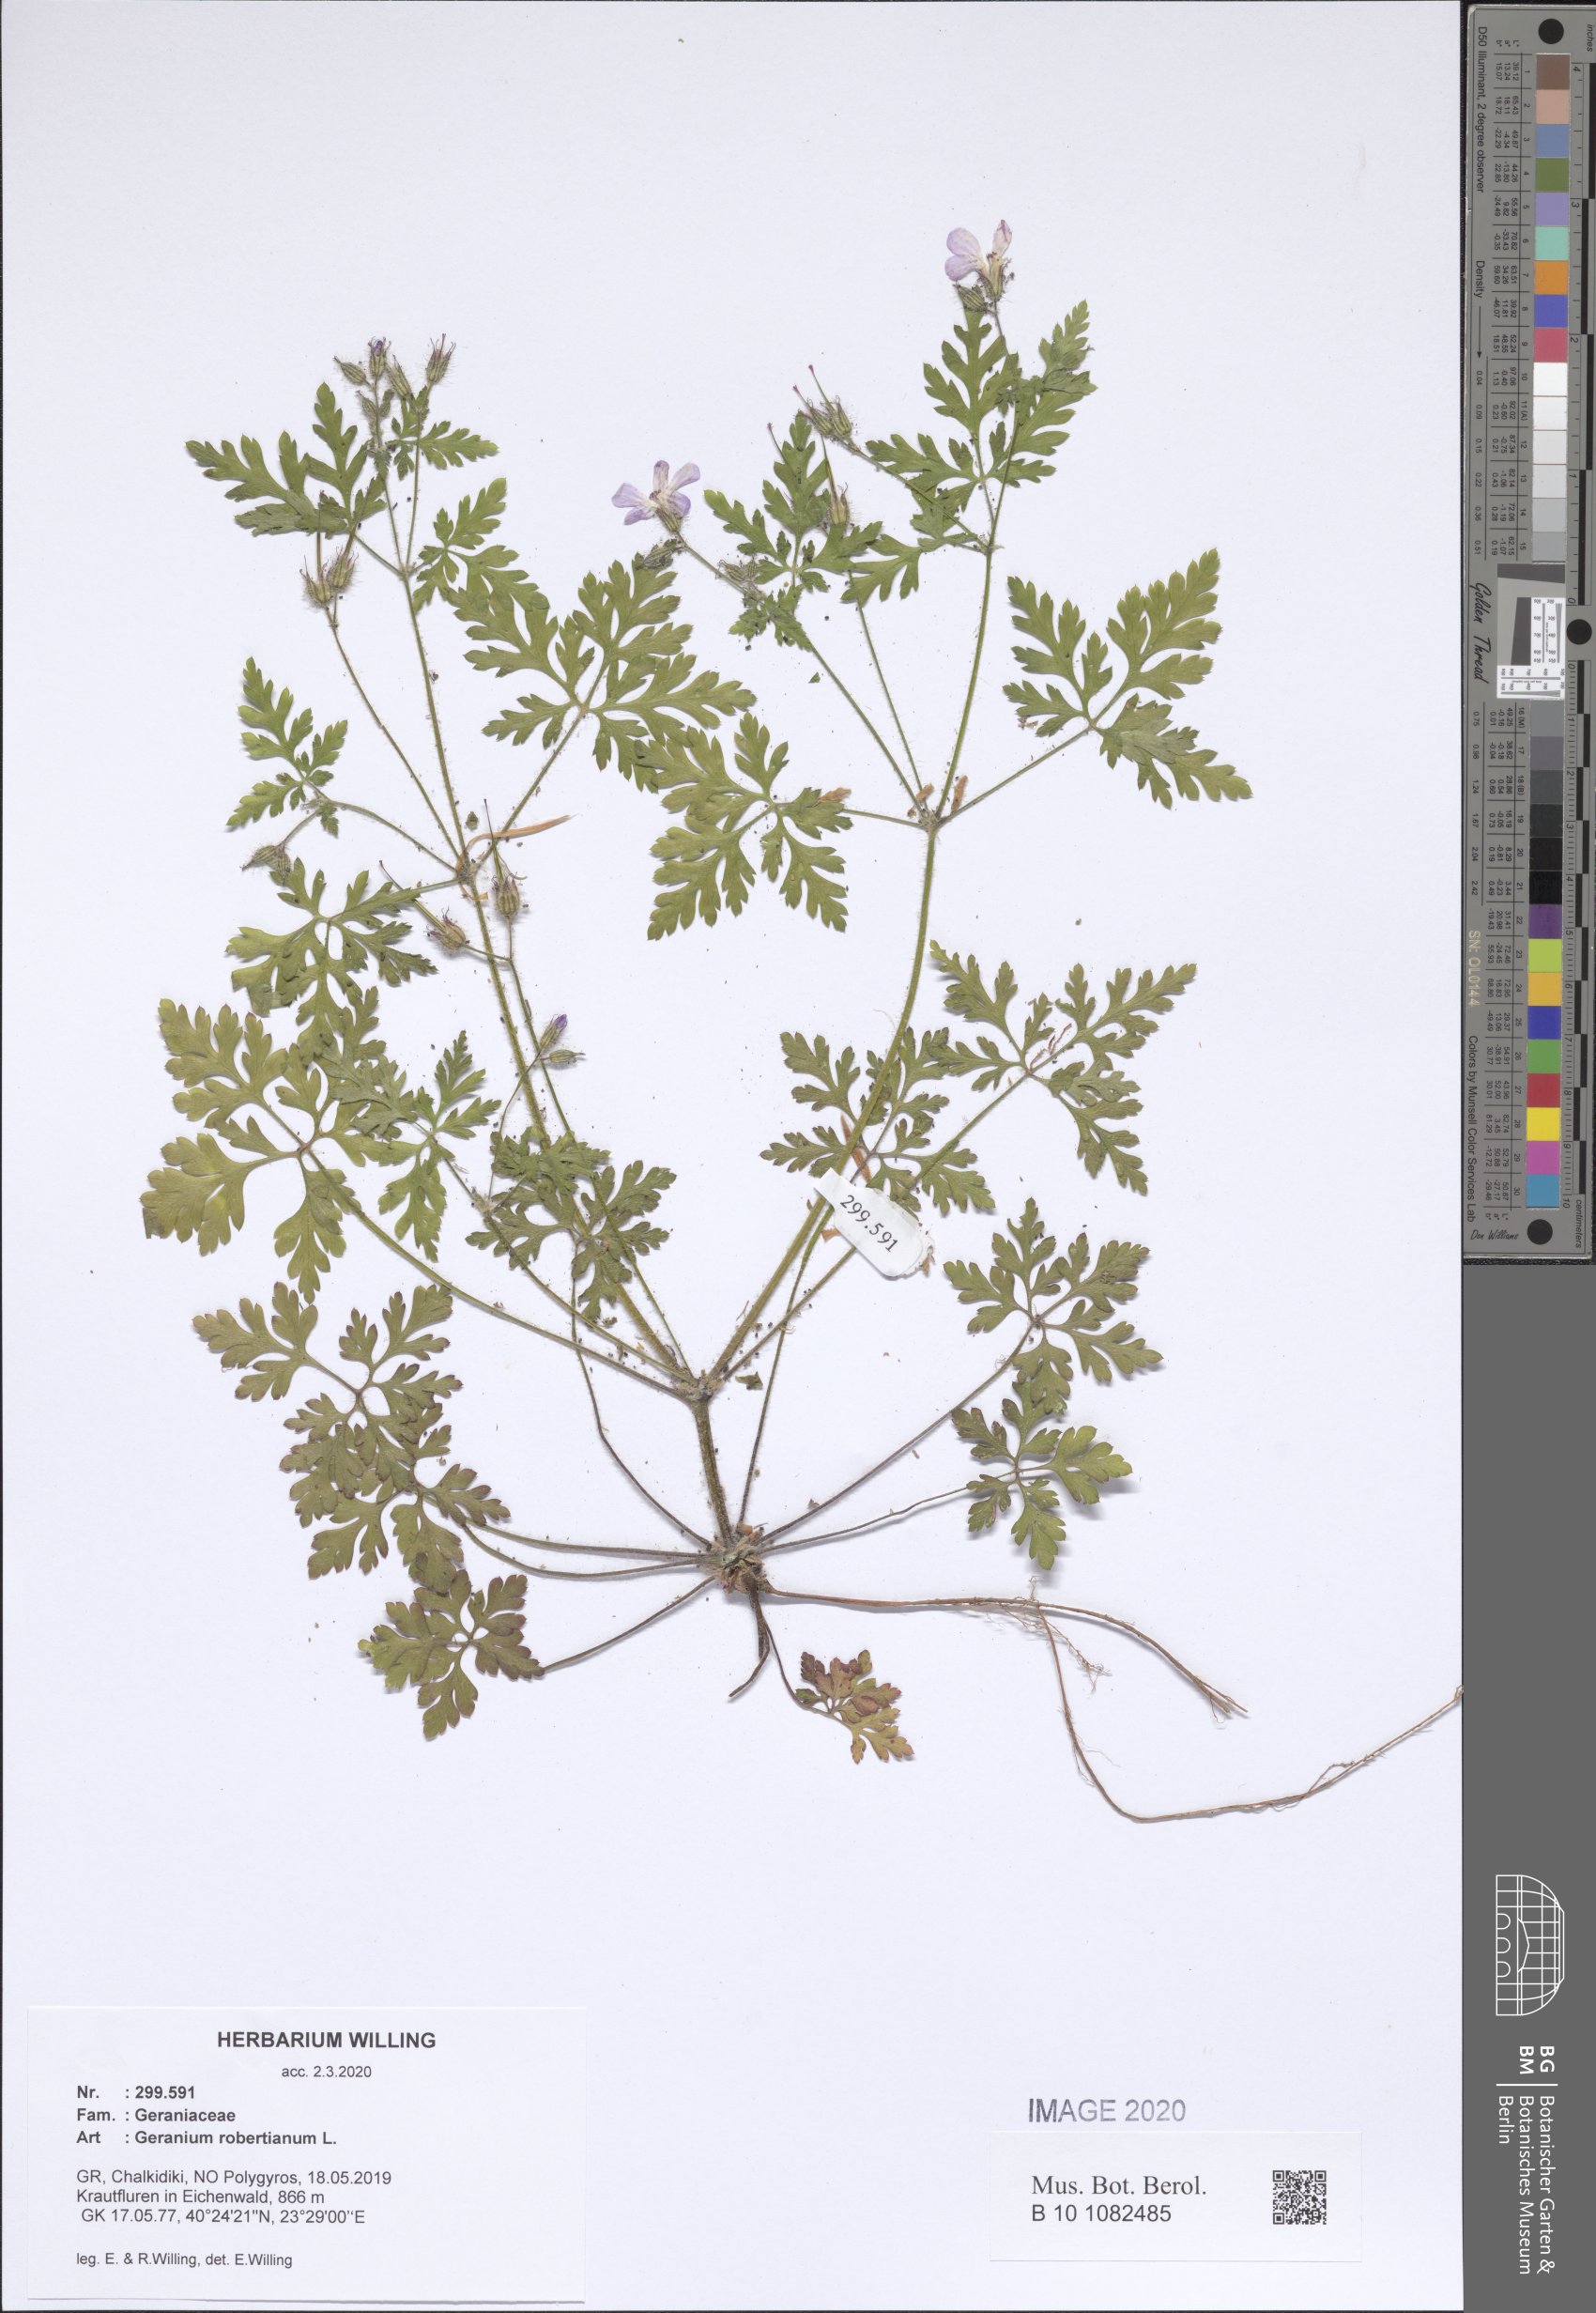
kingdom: Plantae
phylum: Tracheophyta
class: Magnoliopsida
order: Geraniales
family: Geraniaceae
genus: Geranium
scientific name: Geranium robertianum
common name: Herb-robert
